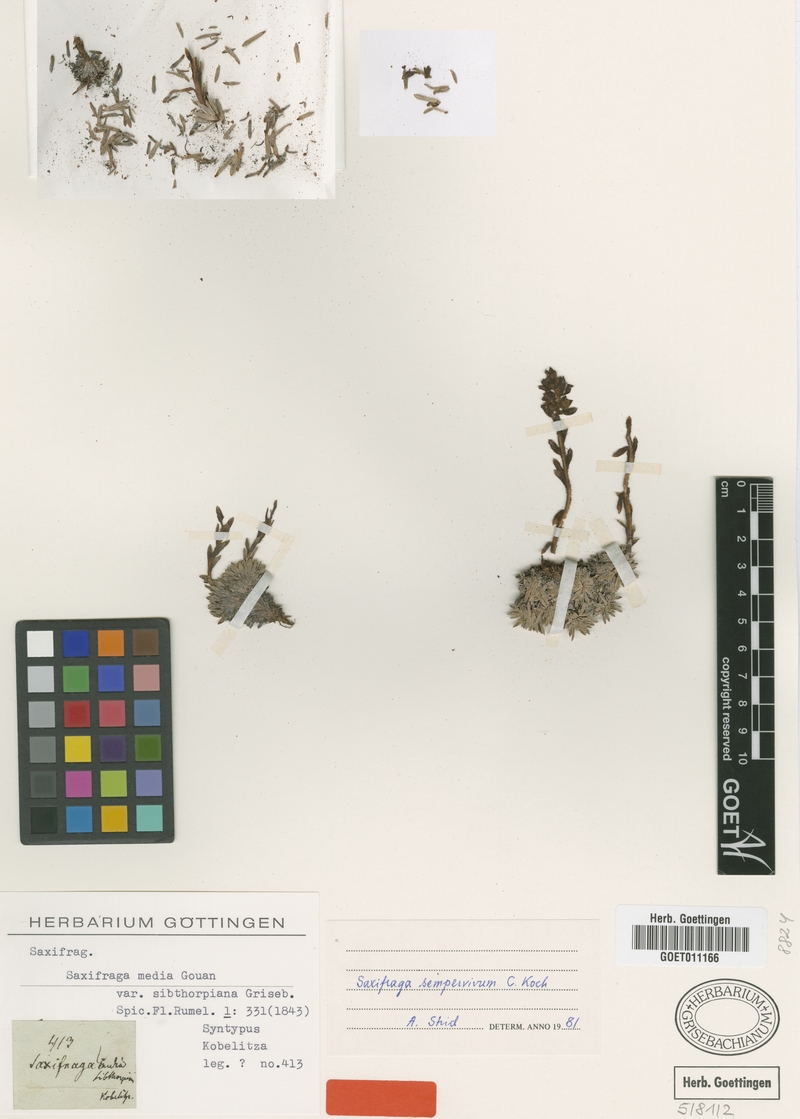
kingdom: Plantae
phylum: Tracheophyta
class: Magnoliopsida
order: Saxifragales
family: Saxifragaceae
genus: Saxifraga
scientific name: Saxifraga sempervivum
